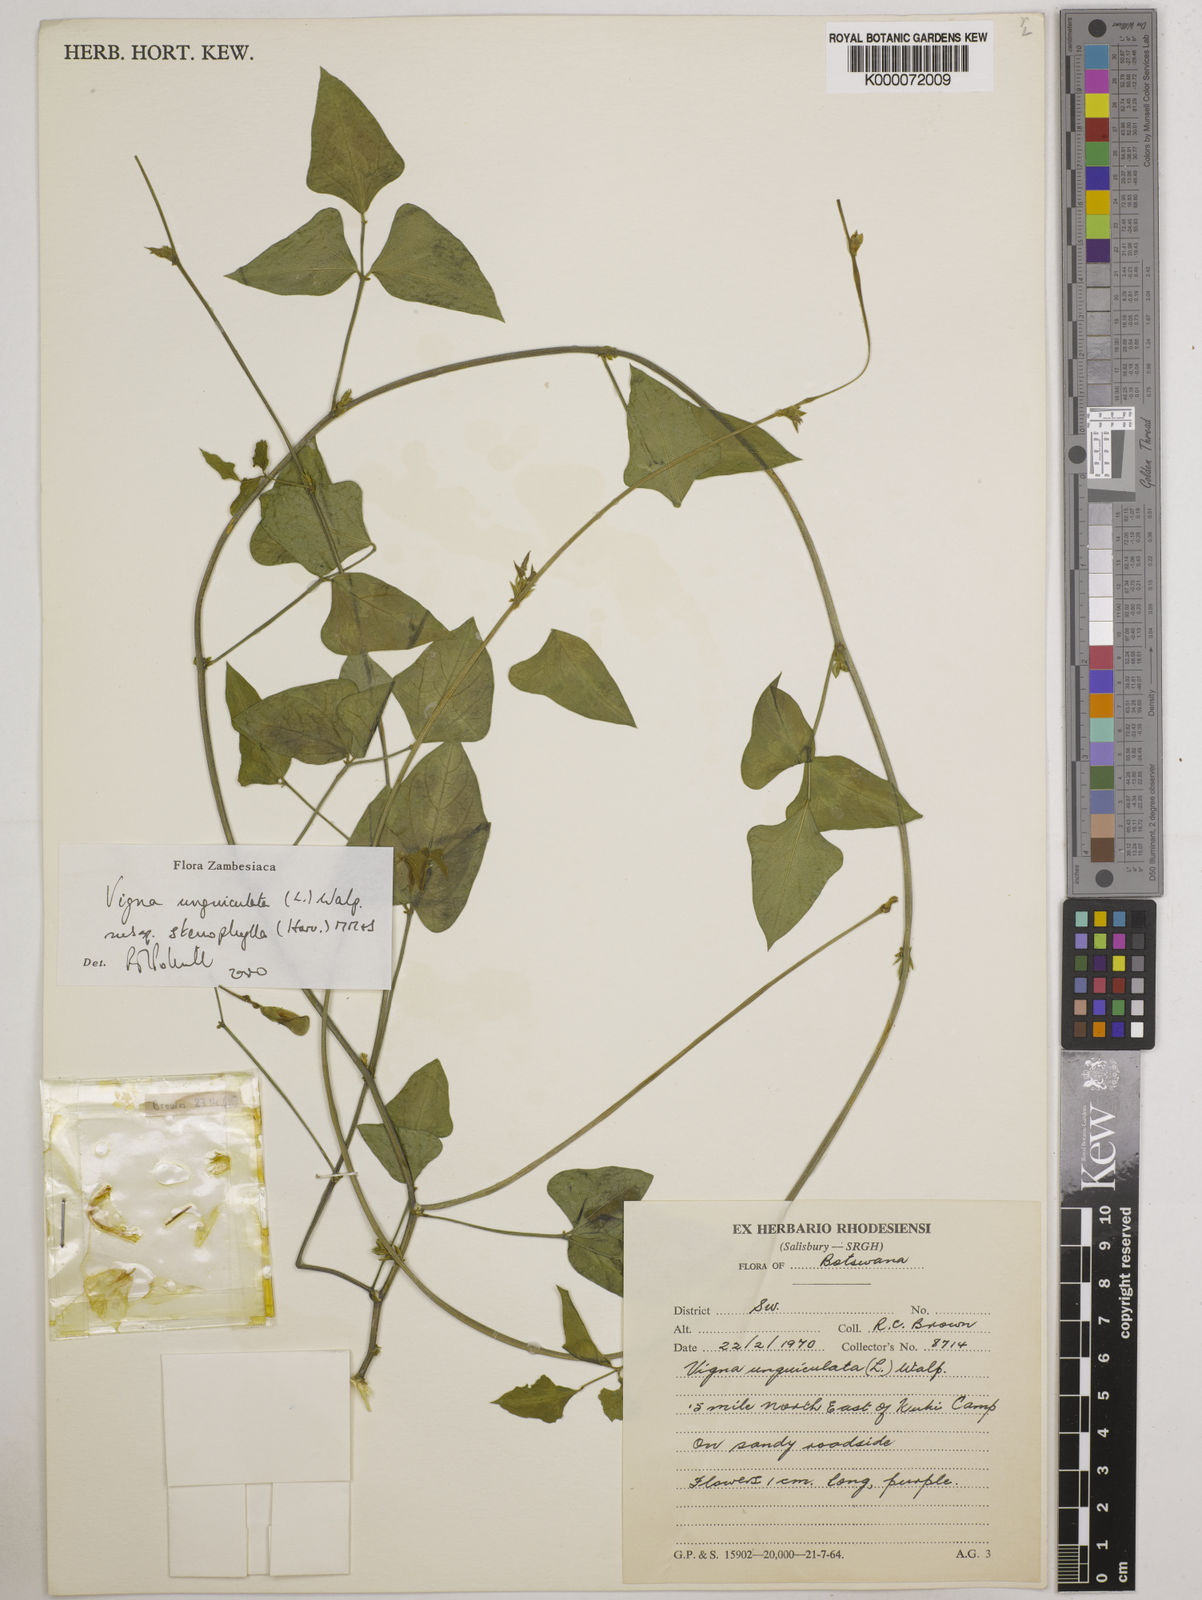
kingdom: Plantae
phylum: Tracheophyta
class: Magnoliopsida
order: Fabales
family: Fabaceae
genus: Vigna
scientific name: Vigna unguiculata
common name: Cowpea
